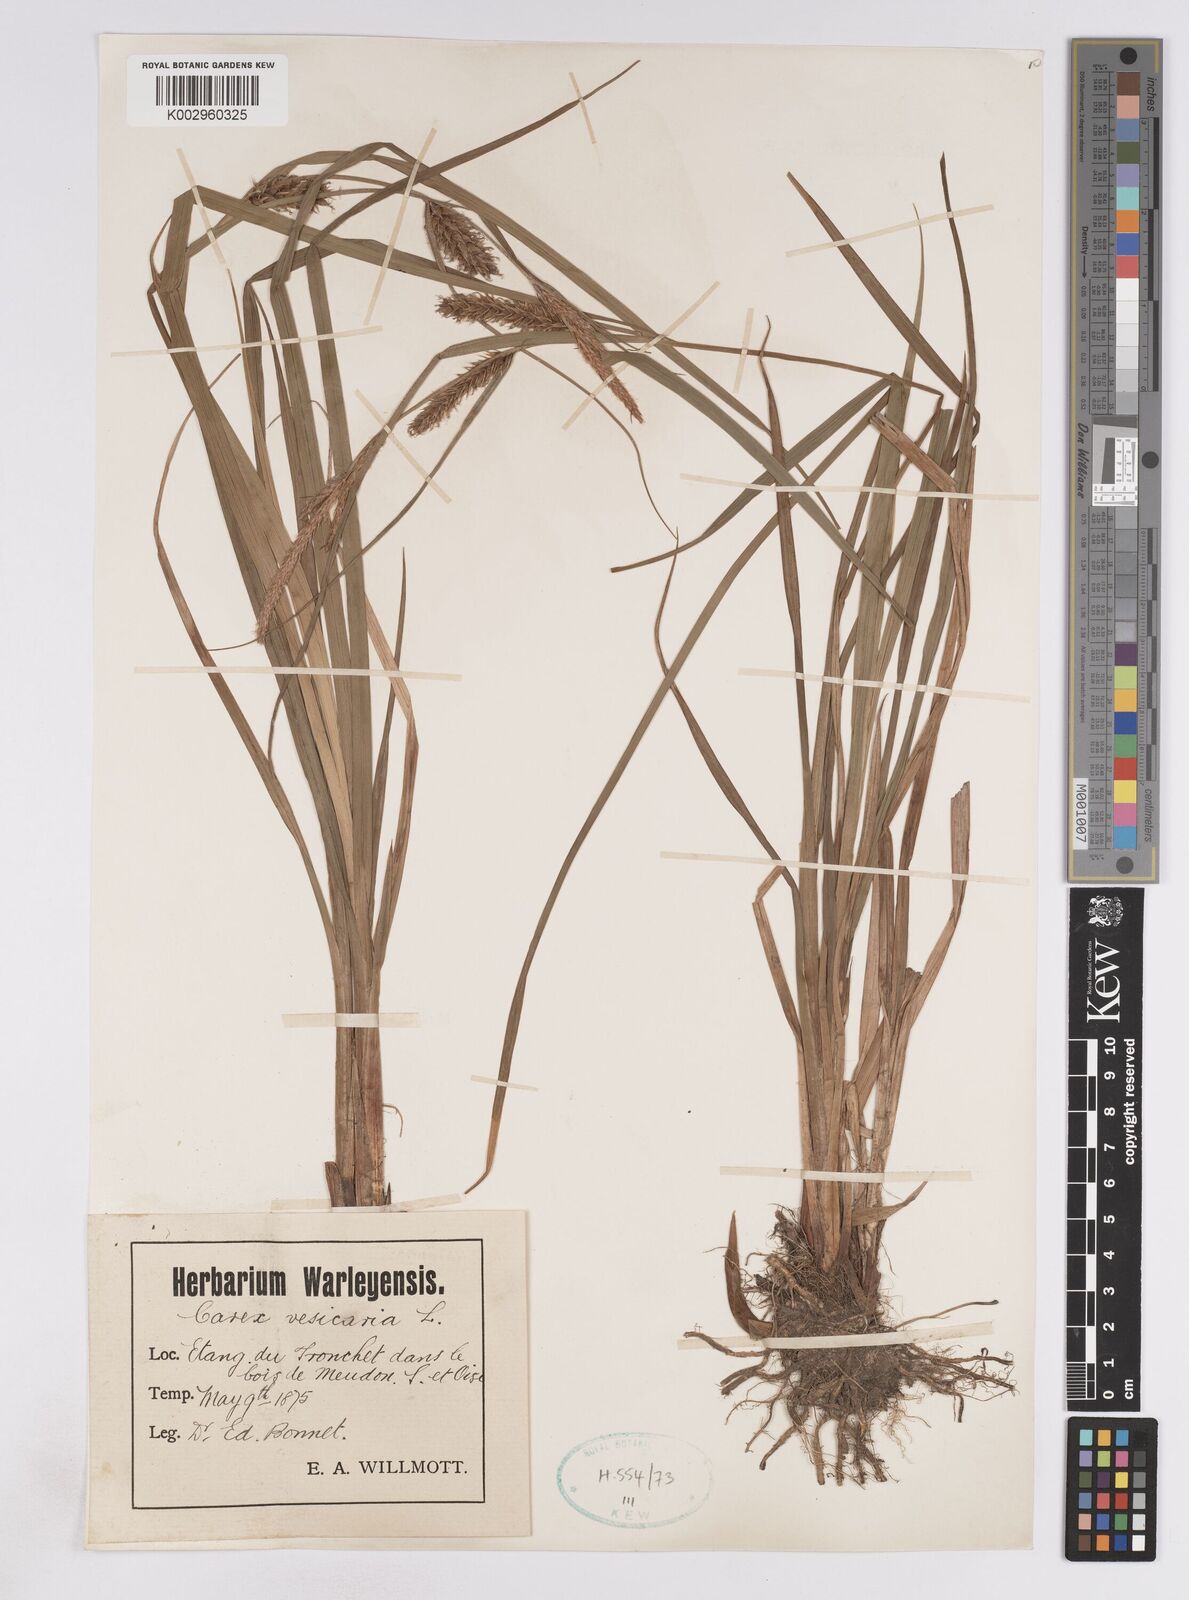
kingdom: Plantae
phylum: Tracheophyta
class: Liliopsida
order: Poales
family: Cyperaceae
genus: Carex
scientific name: Carex vesicaria
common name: Bladder-sedge
